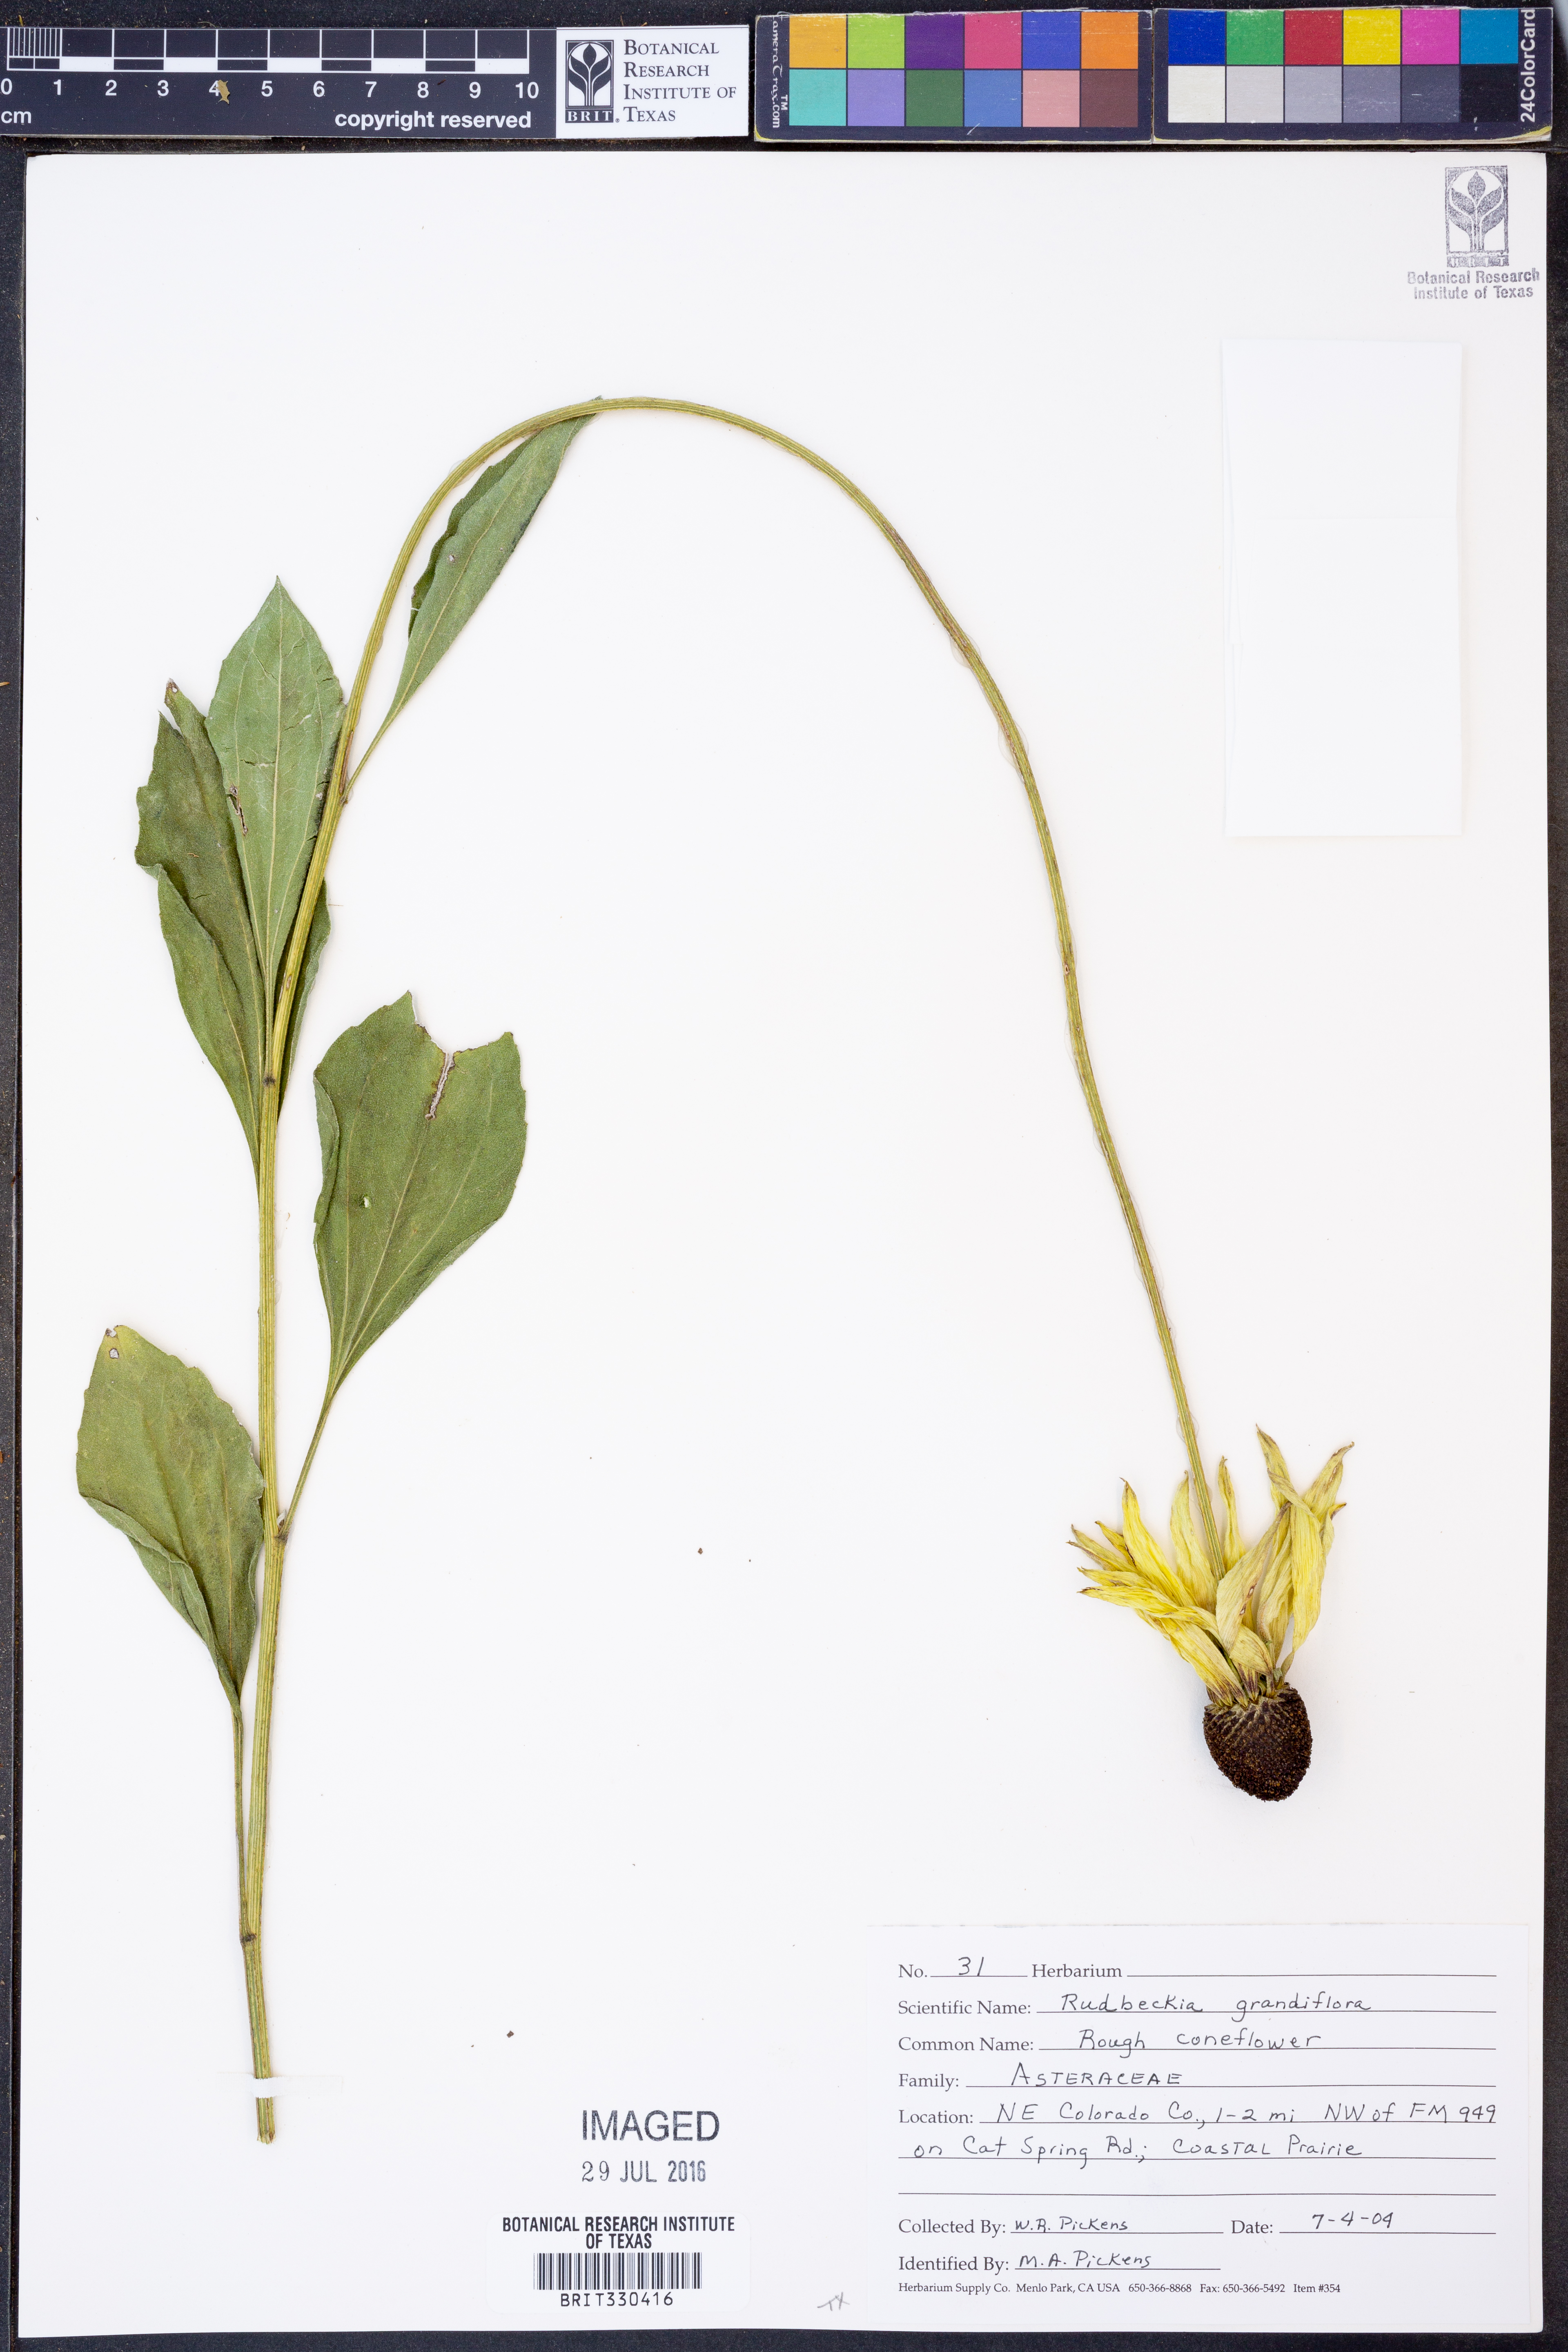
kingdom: Plantae
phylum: Tracheophyta
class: Magnoliopsida
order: Asterales
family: Asteraceae
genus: Rudbeckia
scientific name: Rudbeckia grandiflora
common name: Large-flowered coneflower
